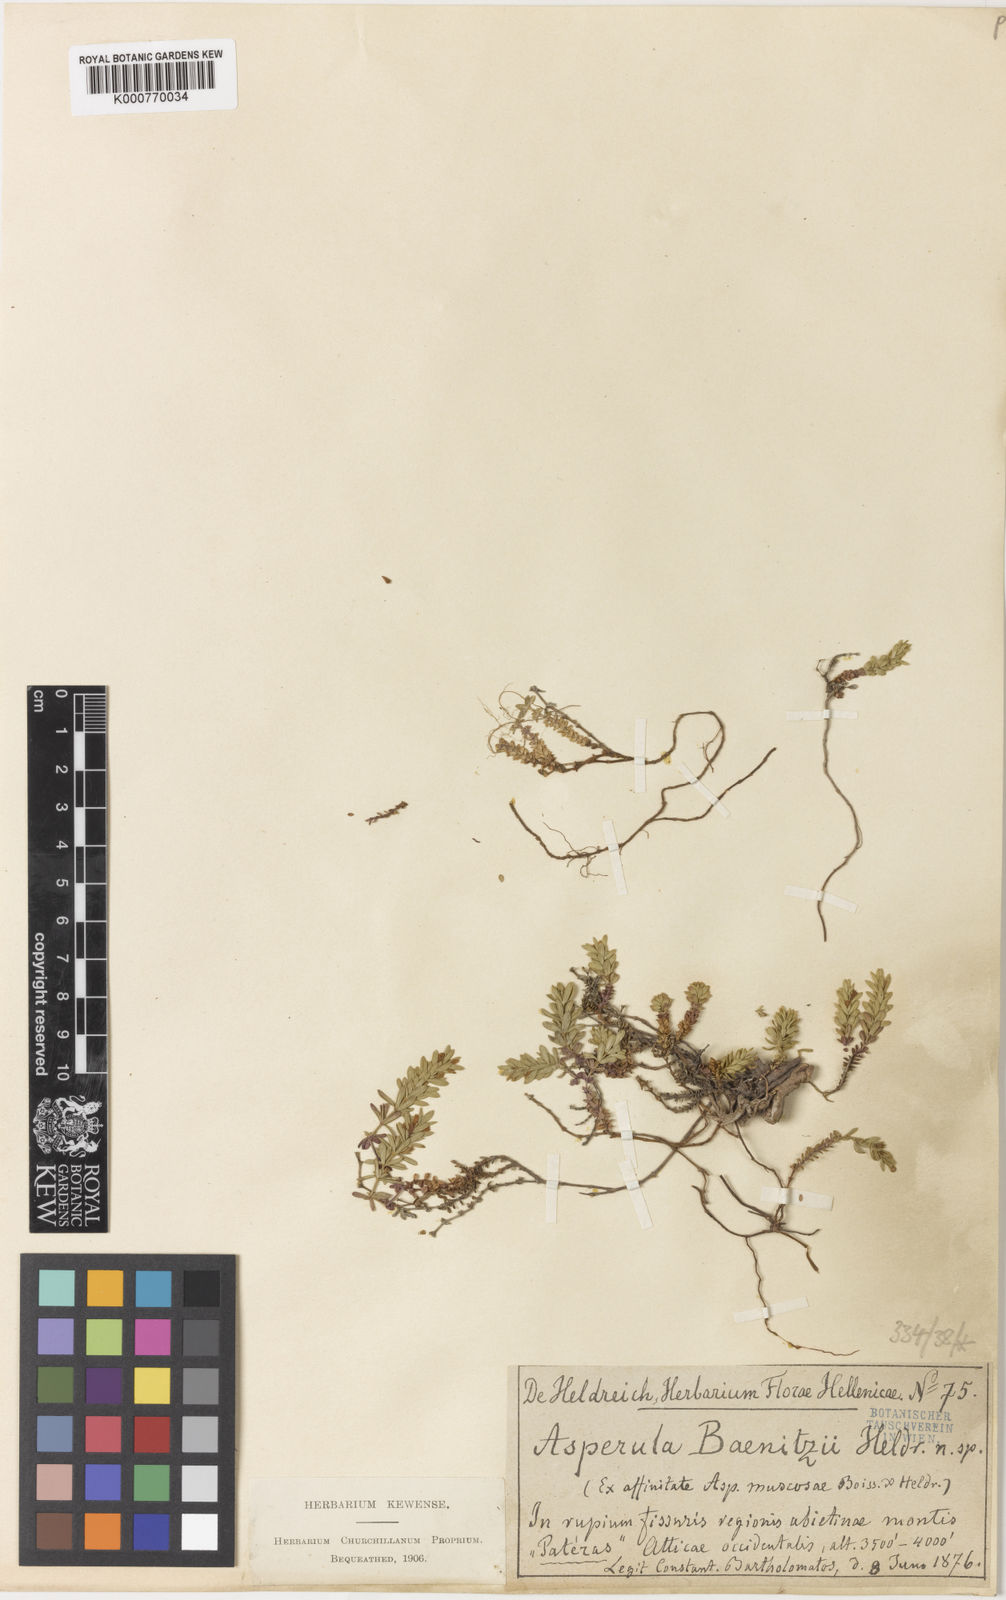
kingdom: Plantae
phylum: Tracheophyta
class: Magnoliopsida
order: Gentianales
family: Rubiaceae
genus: Thliphthisa
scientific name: Thliphthisa baenitzii
